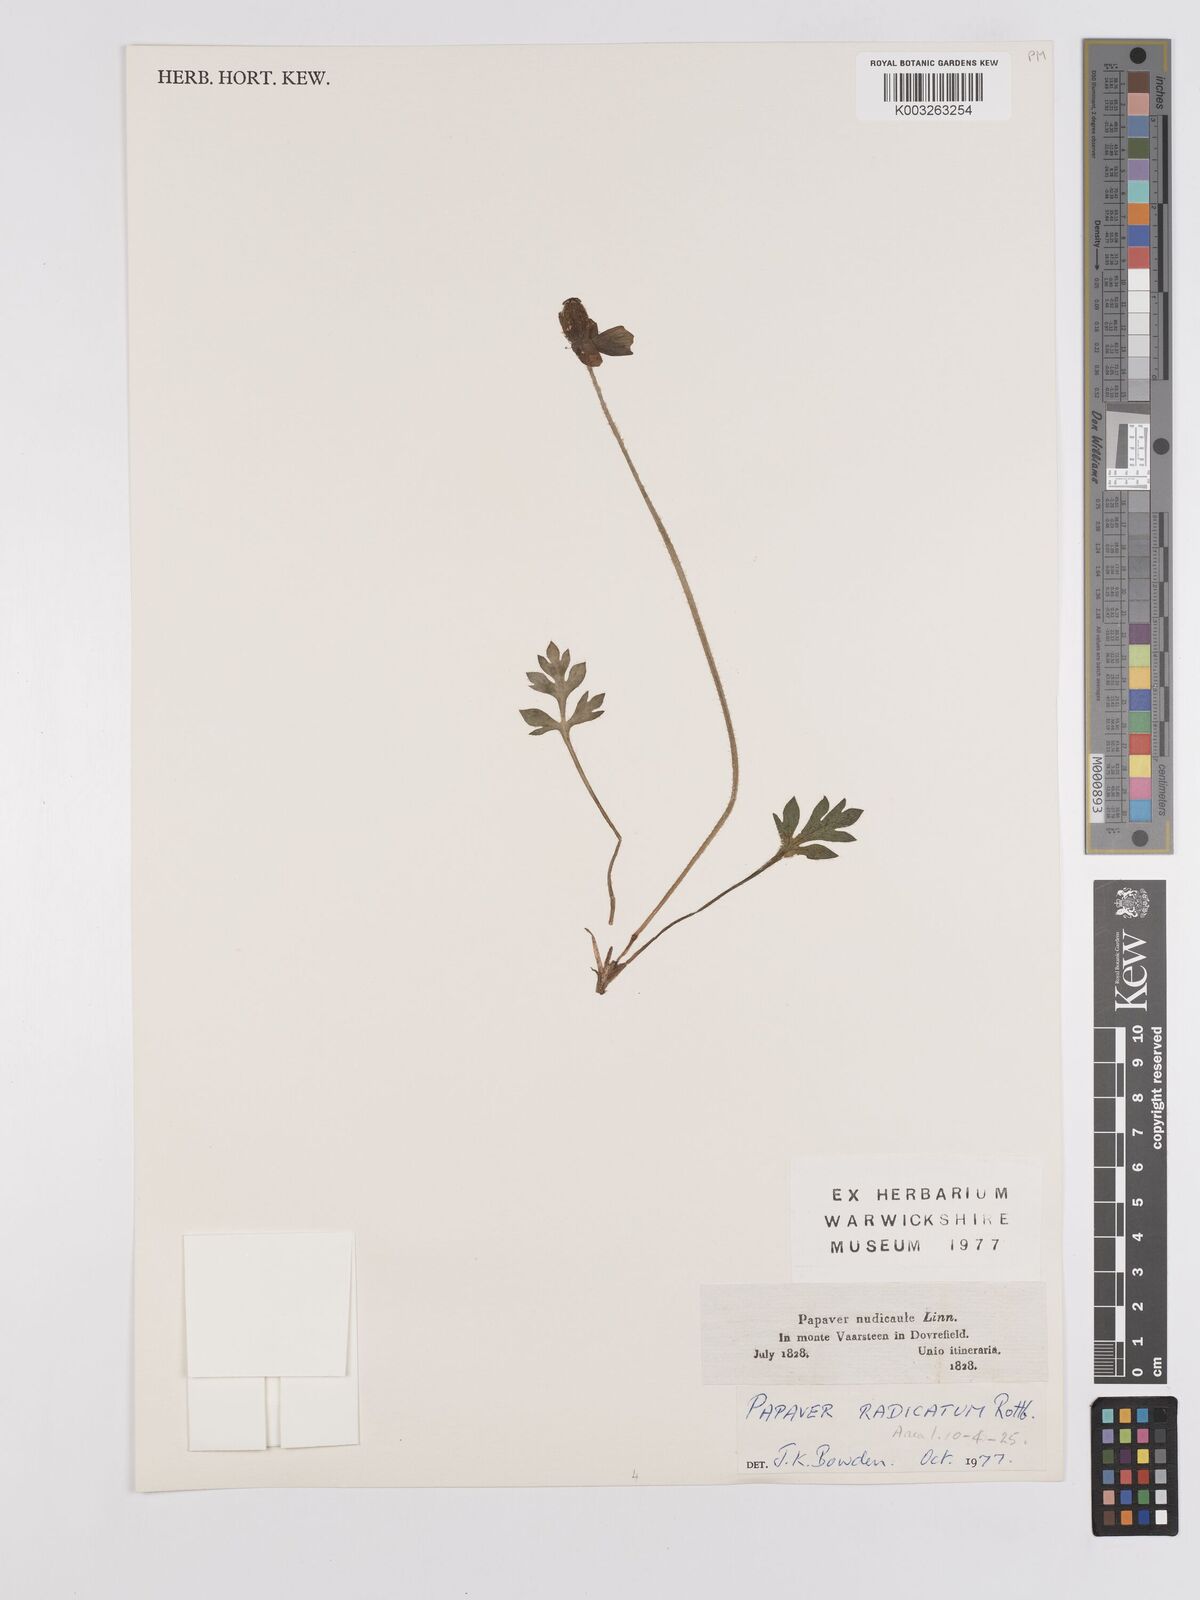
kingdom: Plantae
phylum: Tracheophyta
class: Magnoliopsida
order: Ranunculales
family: Papaveraceae
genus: Papaver
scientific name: Papaver radicatum
